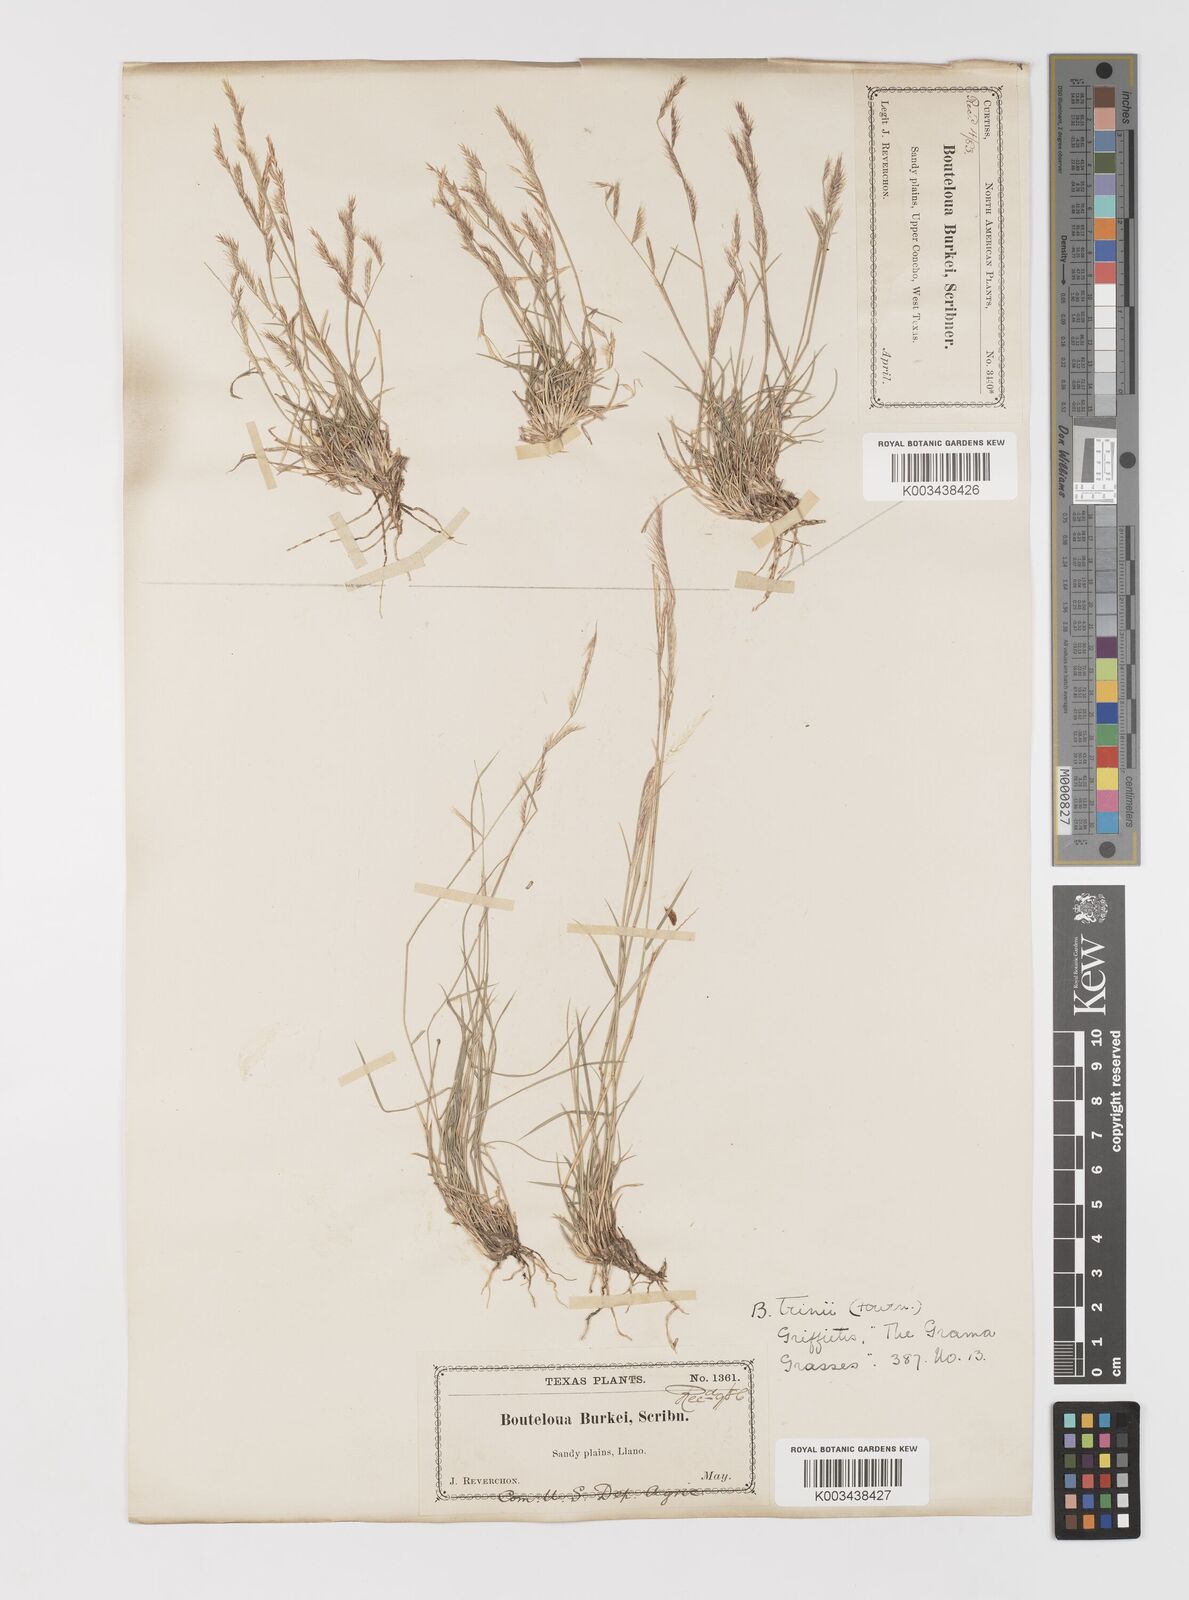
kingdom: Plantae
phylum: Tracheophyta
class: Liliopsida
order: Poales
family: Poaceae
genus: Bouteloua
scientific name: Bouteloua trifida
